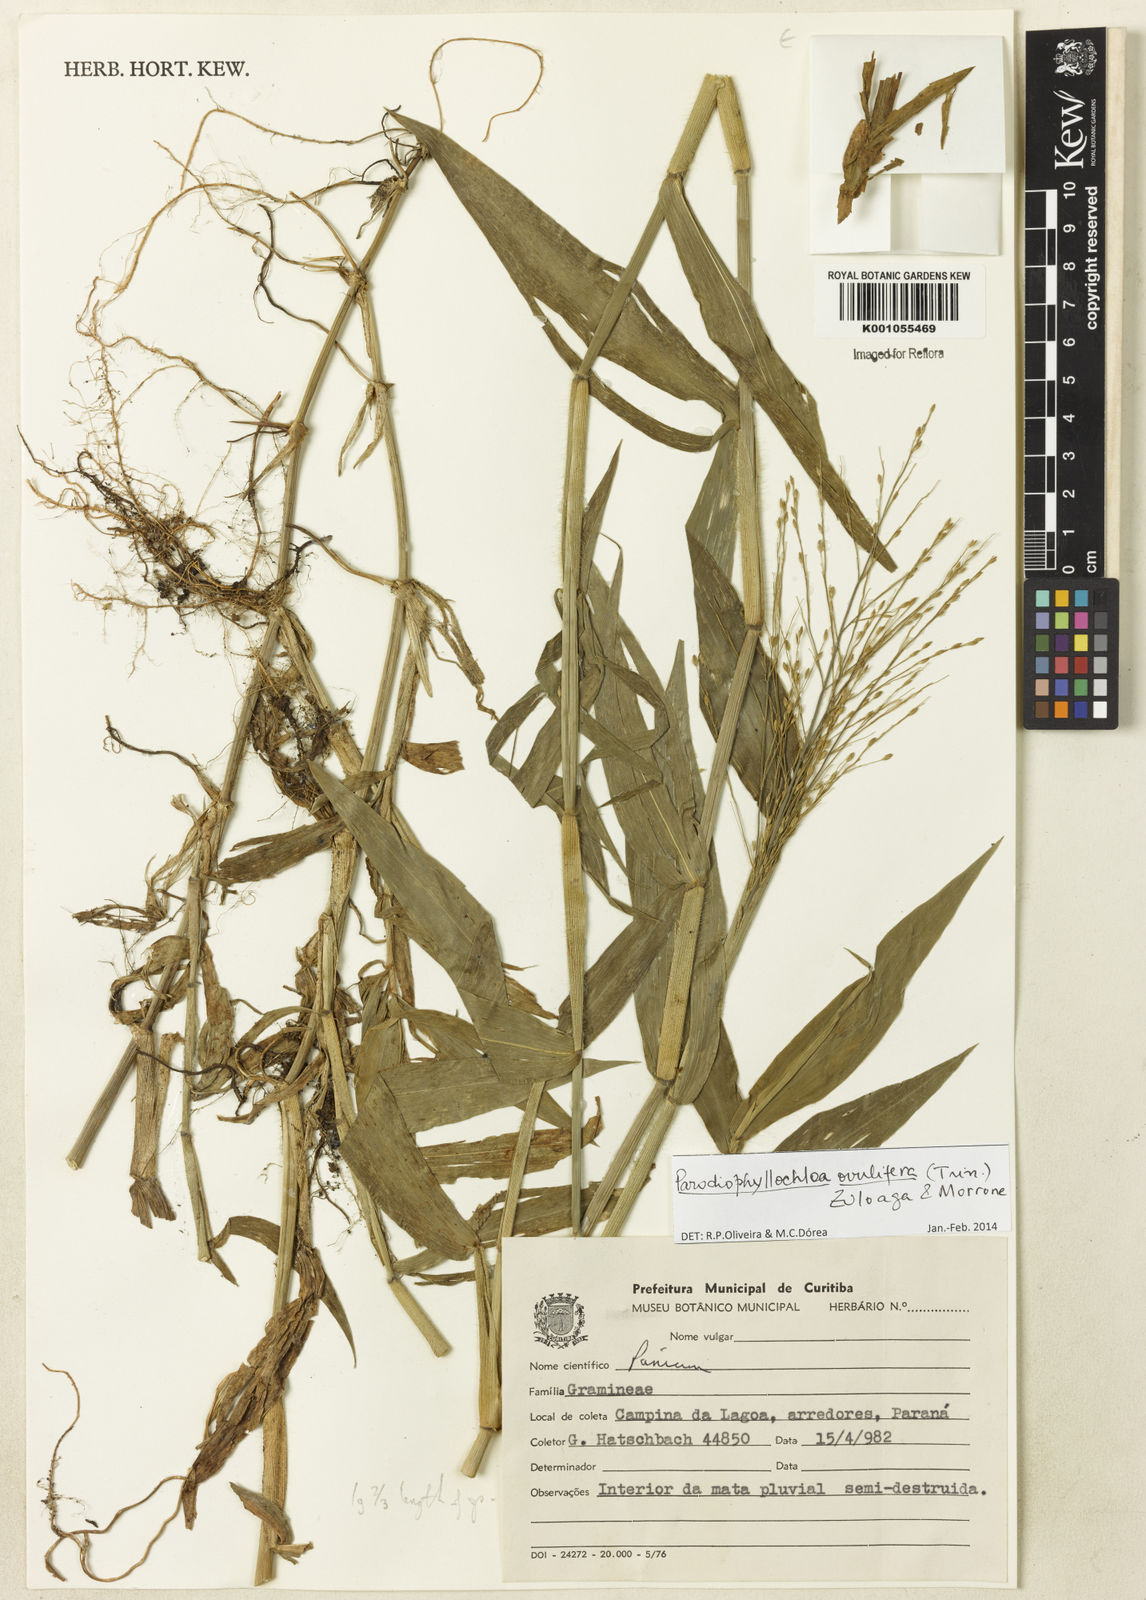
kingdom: Plantae
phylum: Tracheophyta
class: Liliopsida
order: Poales
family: Poaceae
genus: Parodiophyllochloa
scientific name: Parodiophyllochloa ovulifera
